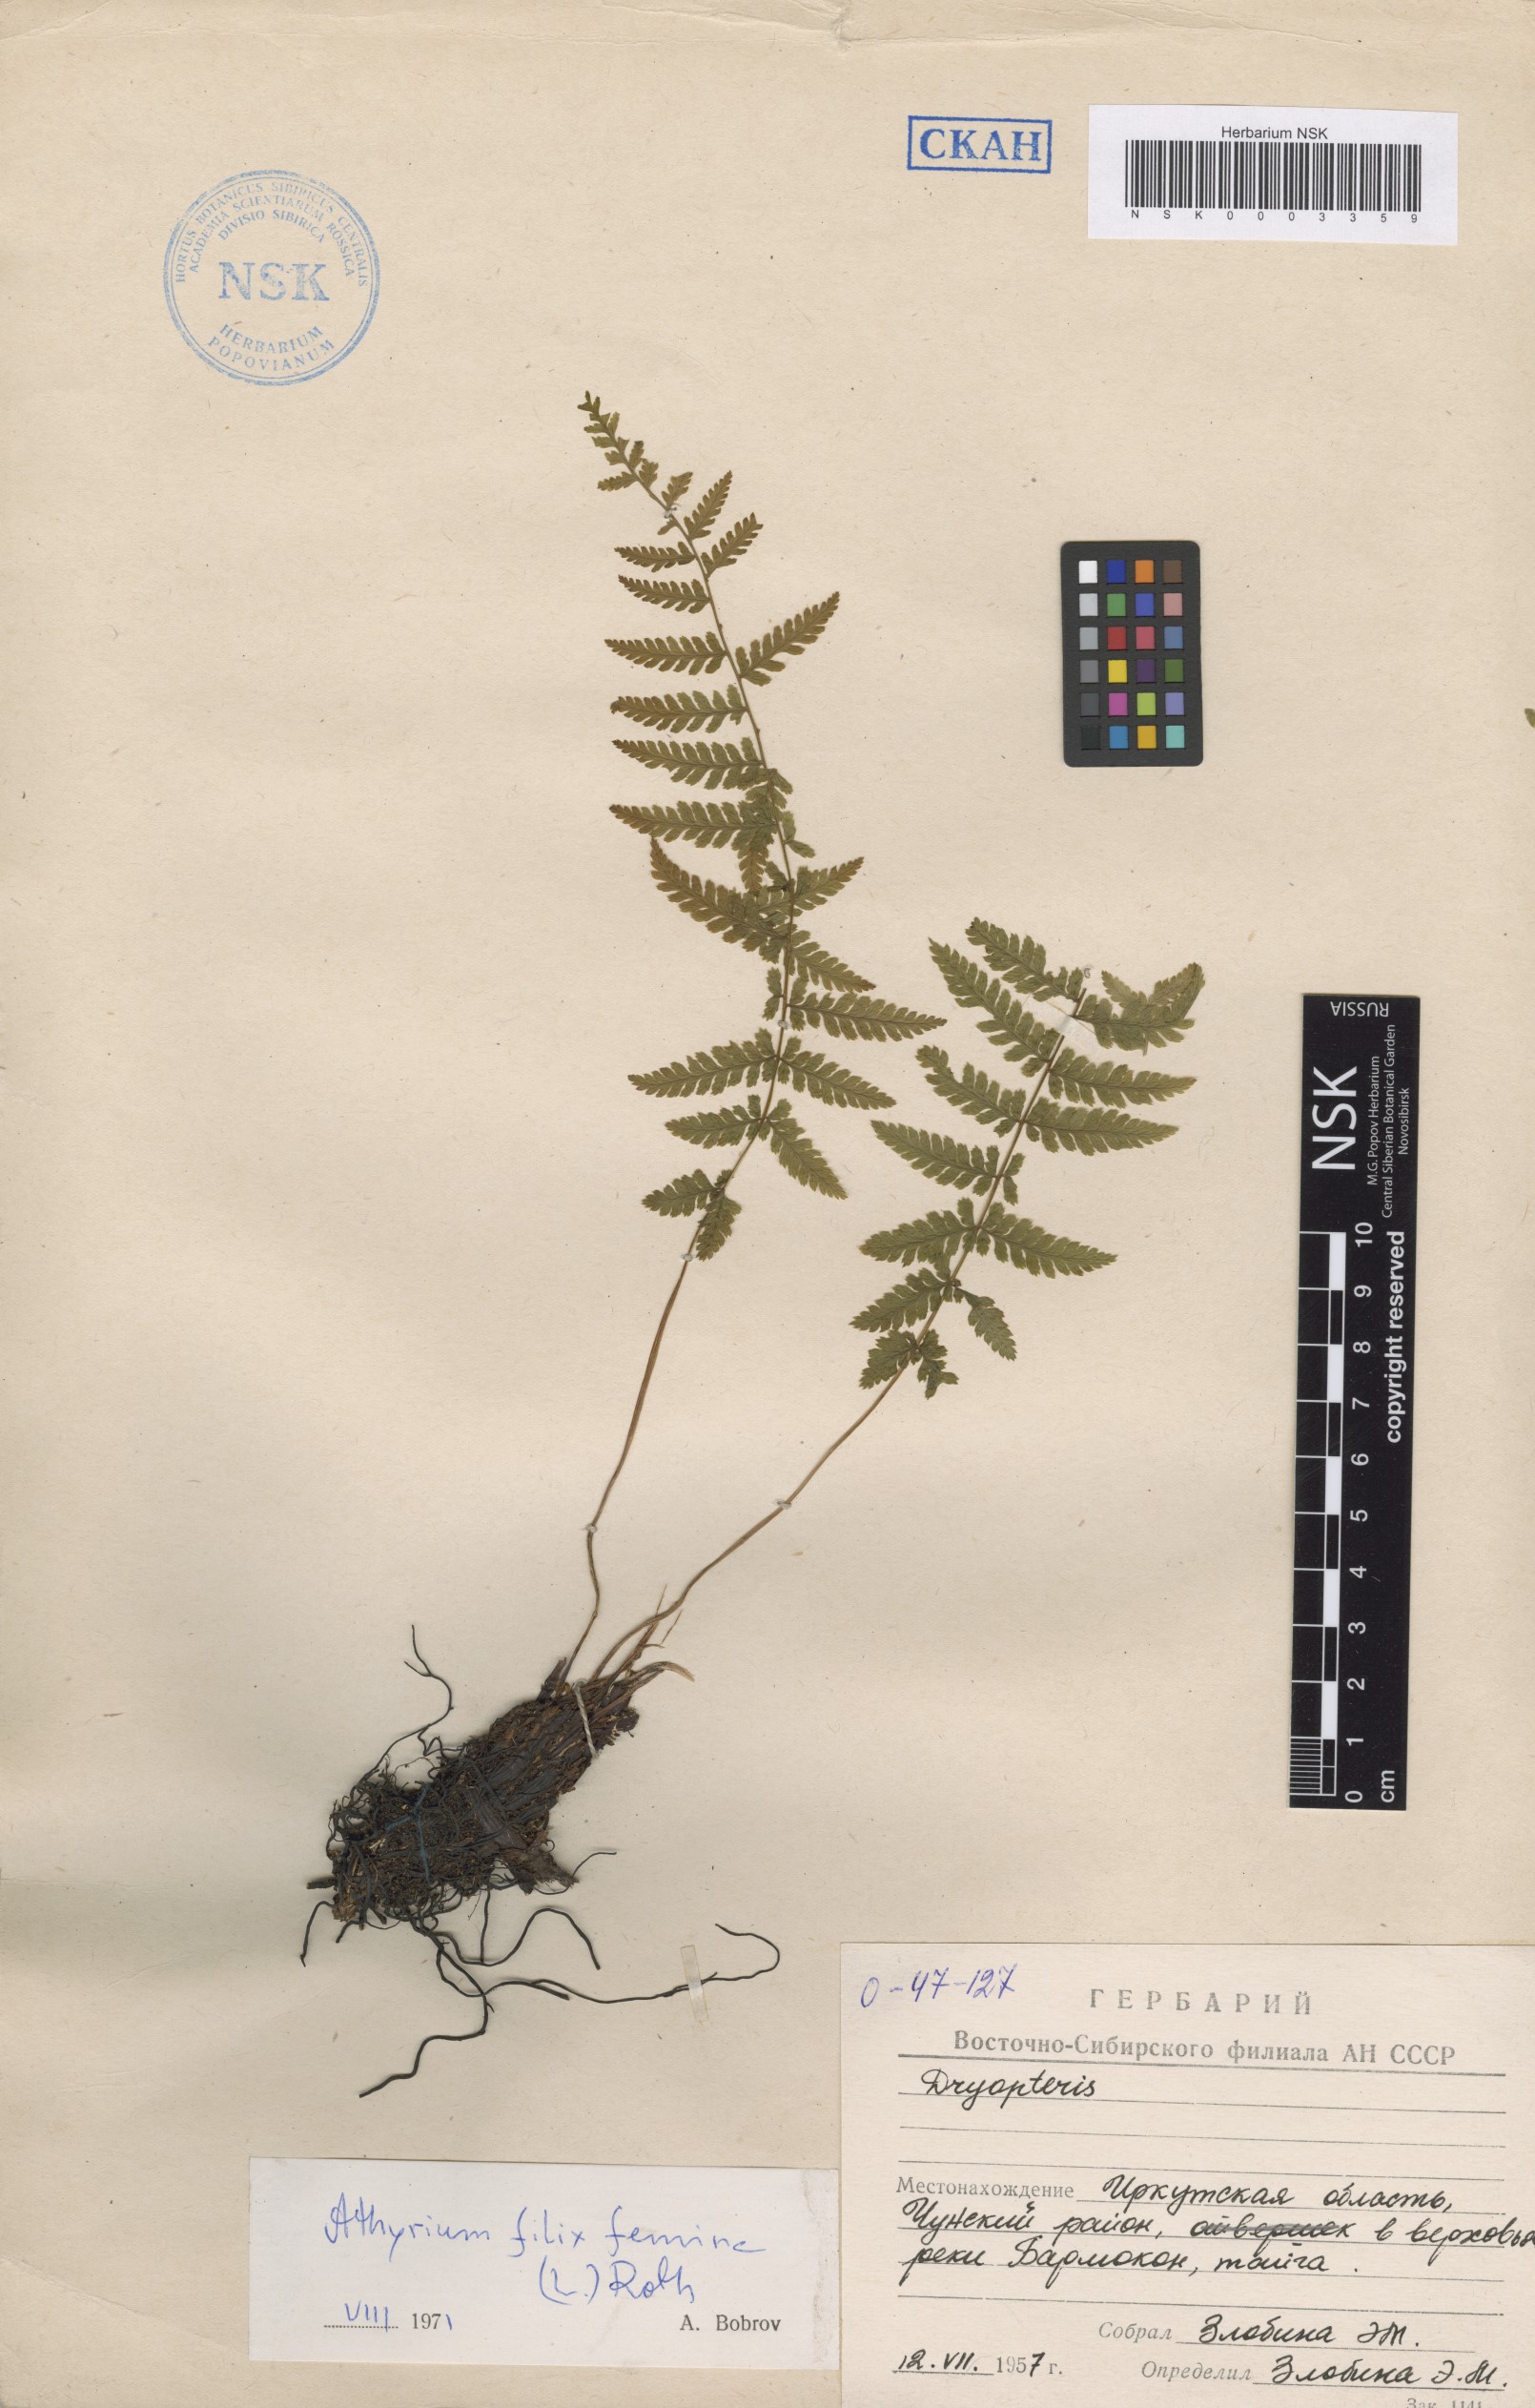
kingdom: Plantae
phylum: Tracheophyta
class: Polypodiopsida
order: Polypodiales
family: Athyriaceae
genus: Athyrium
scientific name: Athyrium filix-femina
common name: Lady fern
